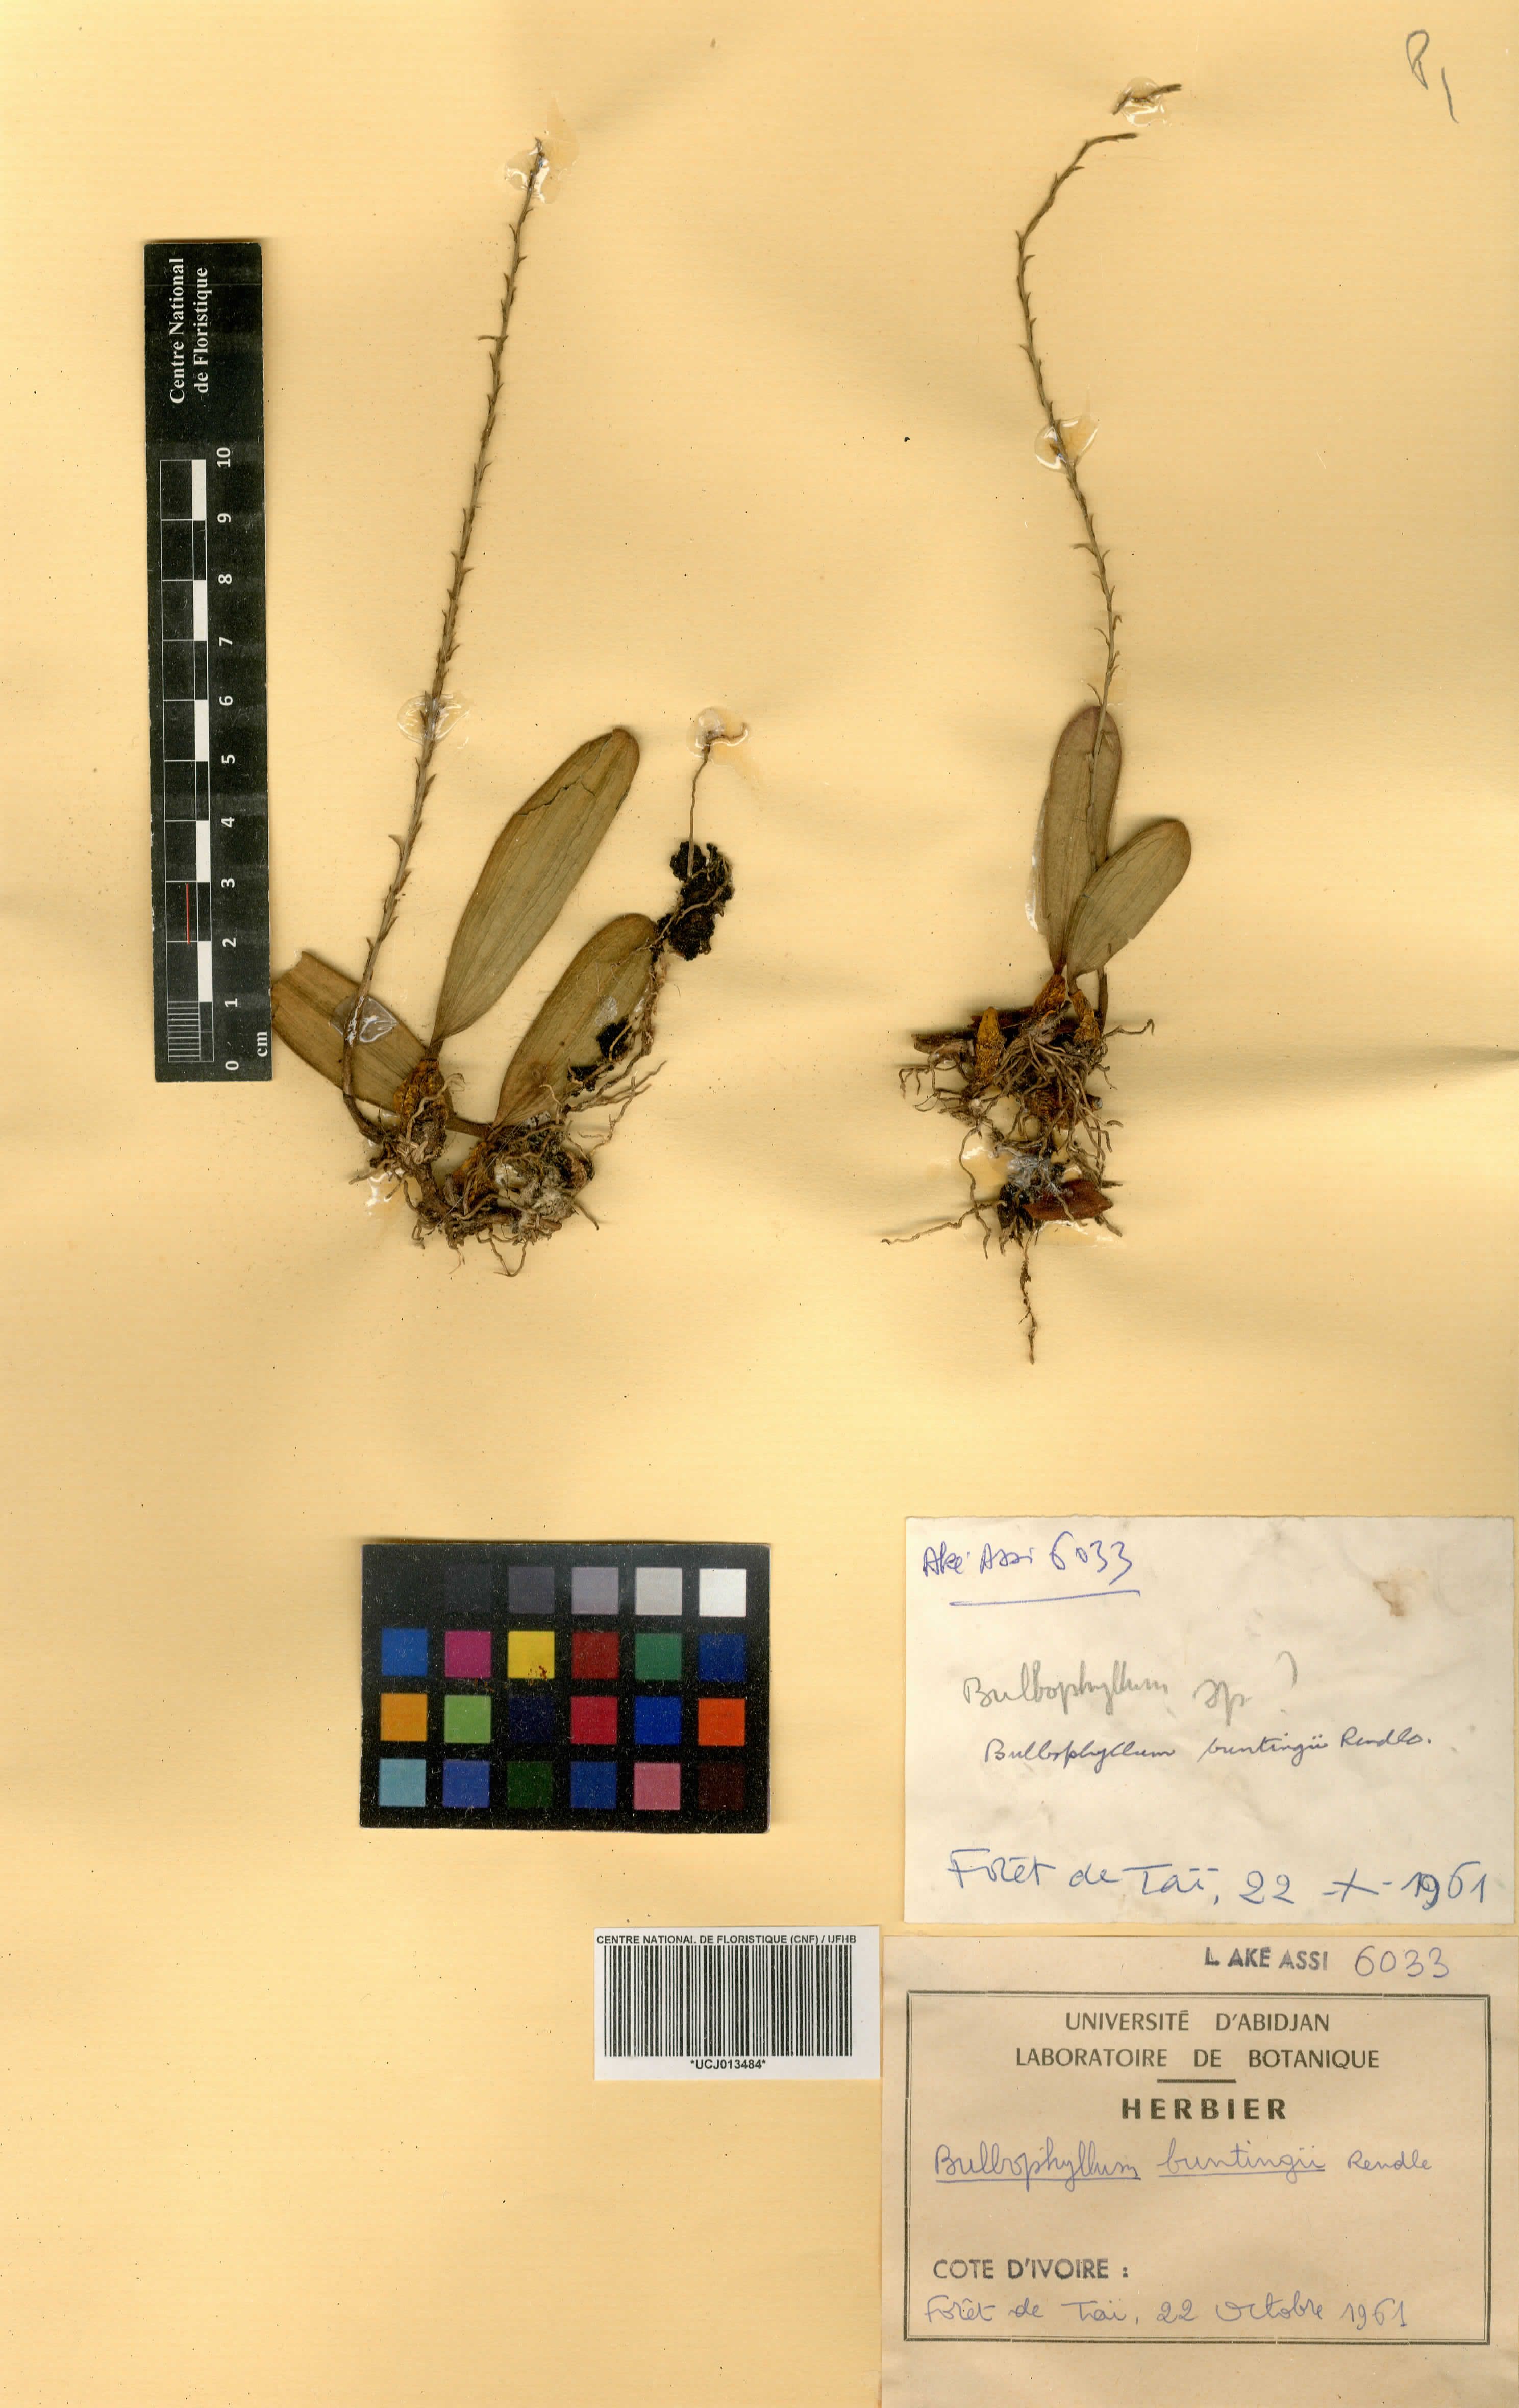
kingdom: Plantae
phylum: Tracheophyta
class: Liliopsida
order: Asparagales
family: Orchidaceae
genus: Bulbophyllum
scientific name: Bulbophyllum oxychilum
